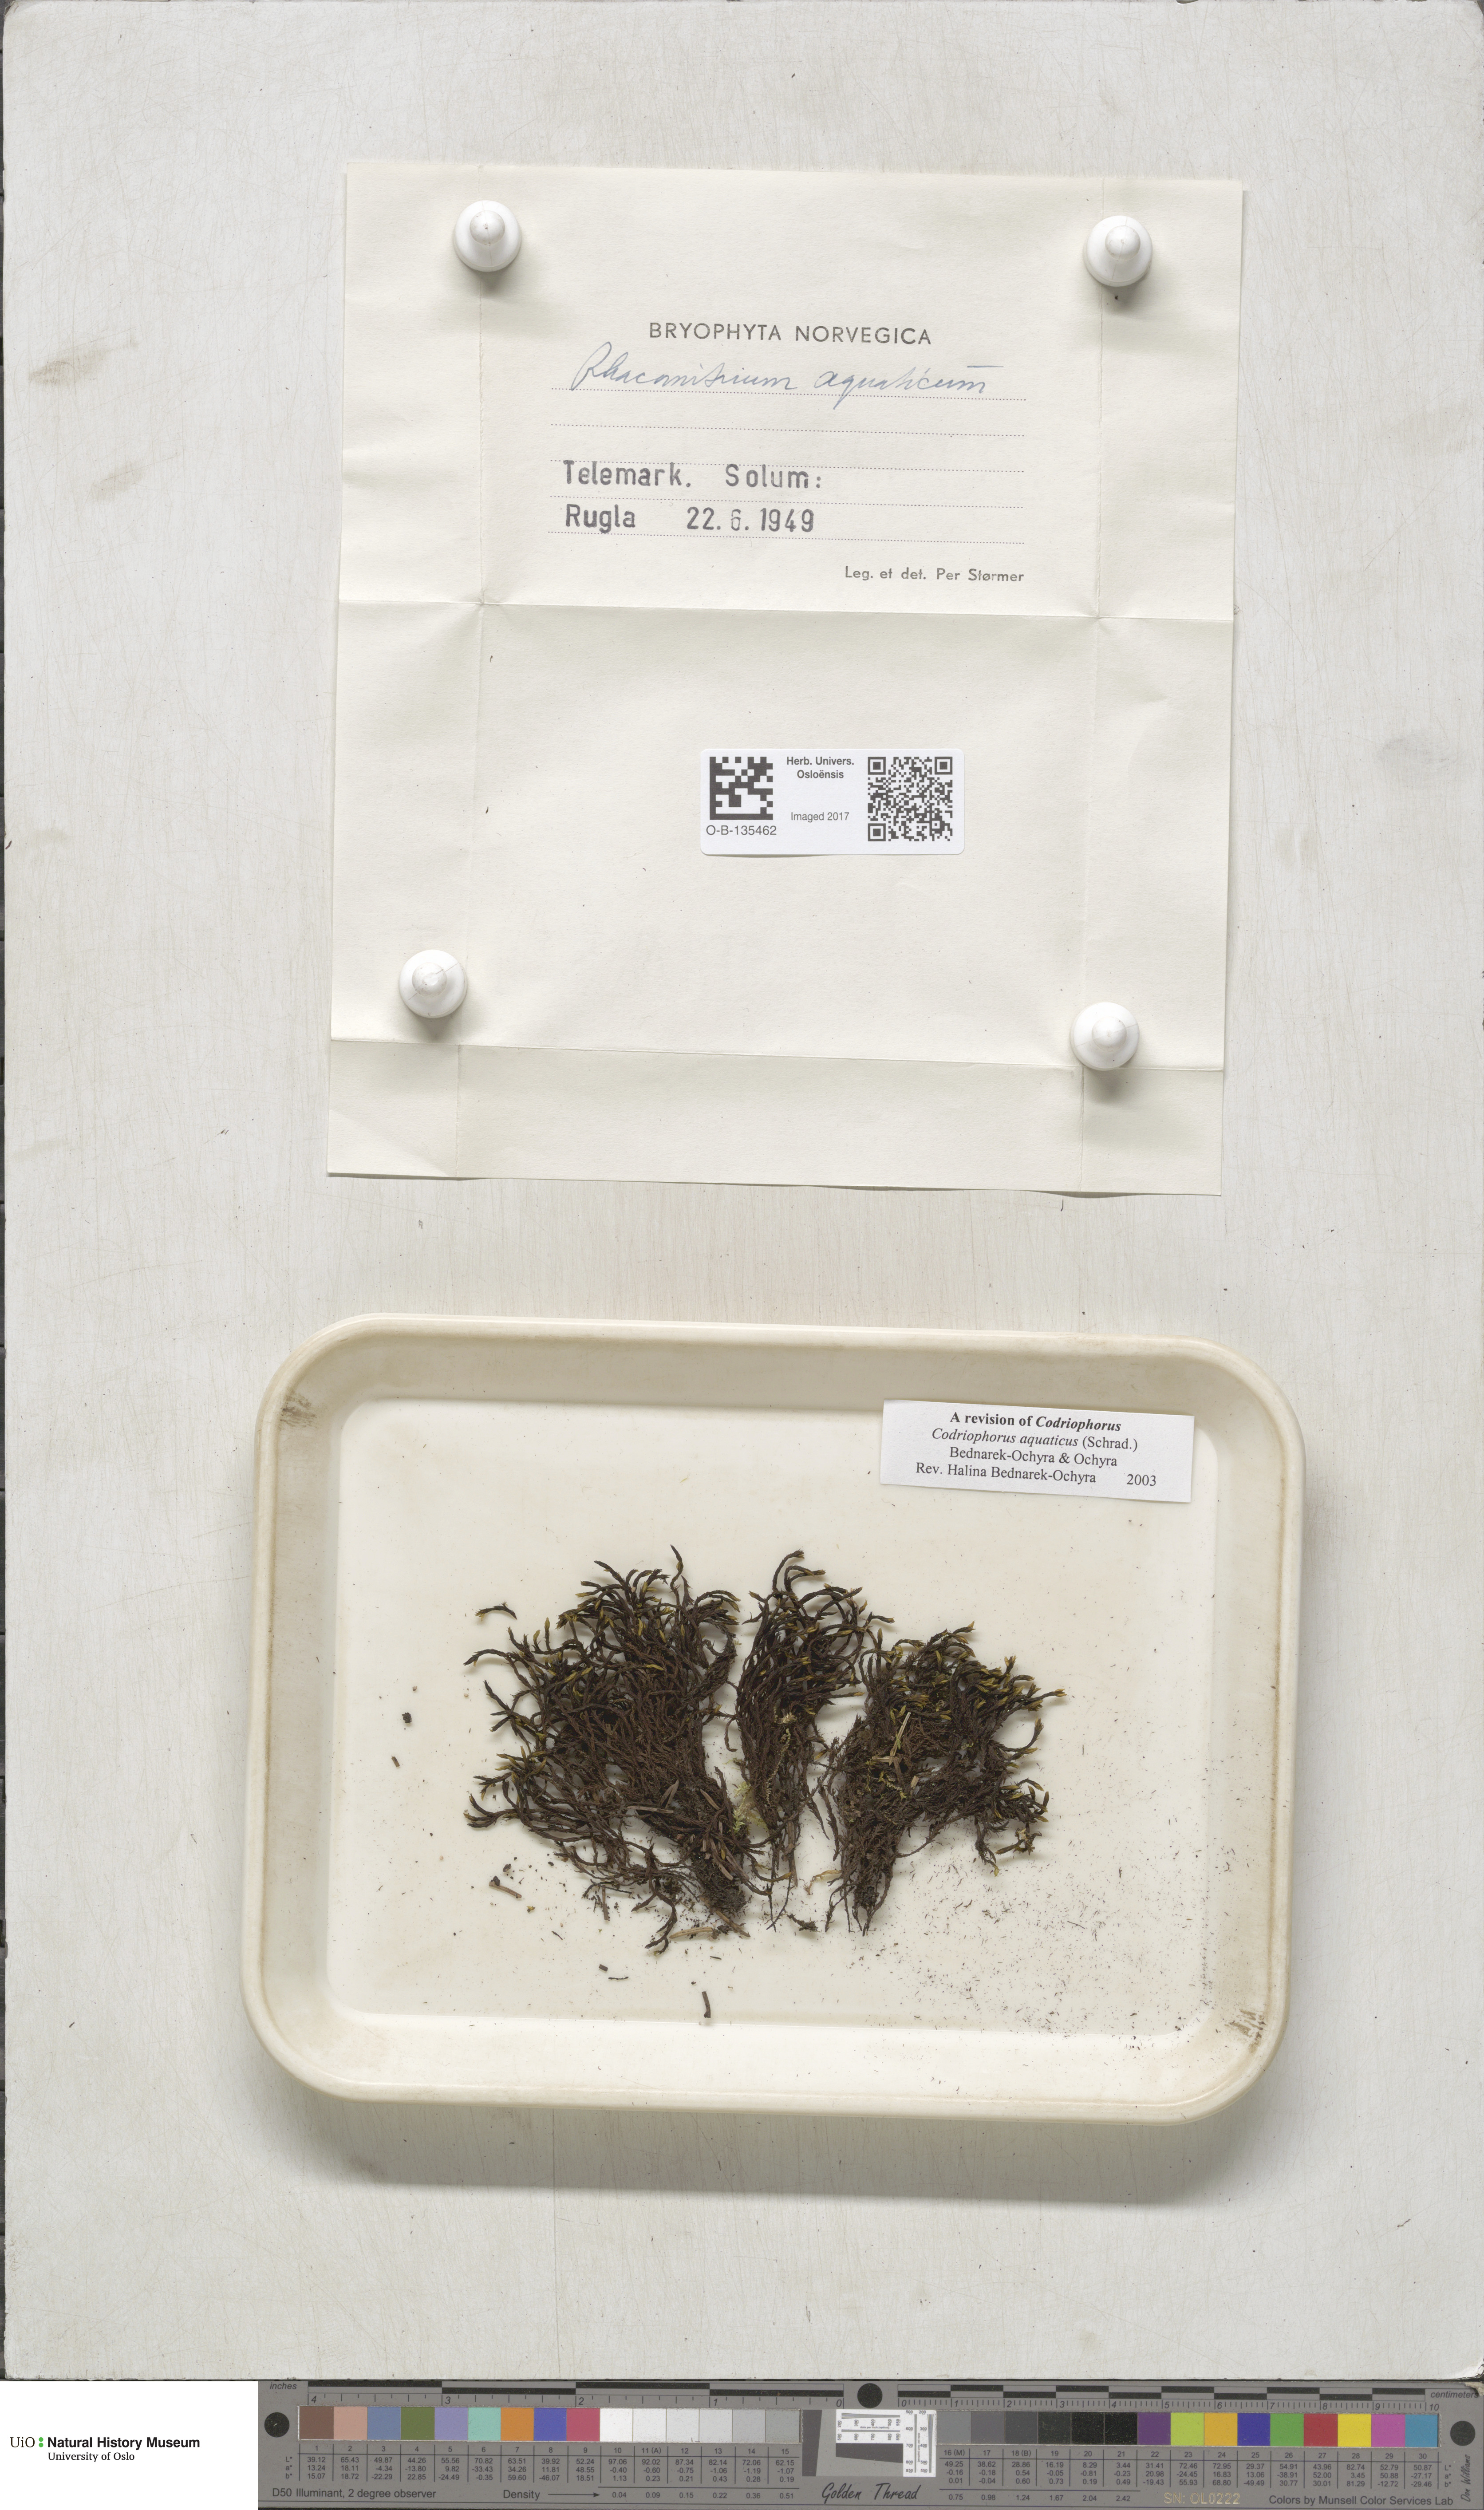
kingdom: Plantae
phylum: Bryophyta
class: Bryopsida
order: Grimmiales
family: Grimmiaceae
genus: Codriophorus
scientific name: Codriophorus aquaticus
